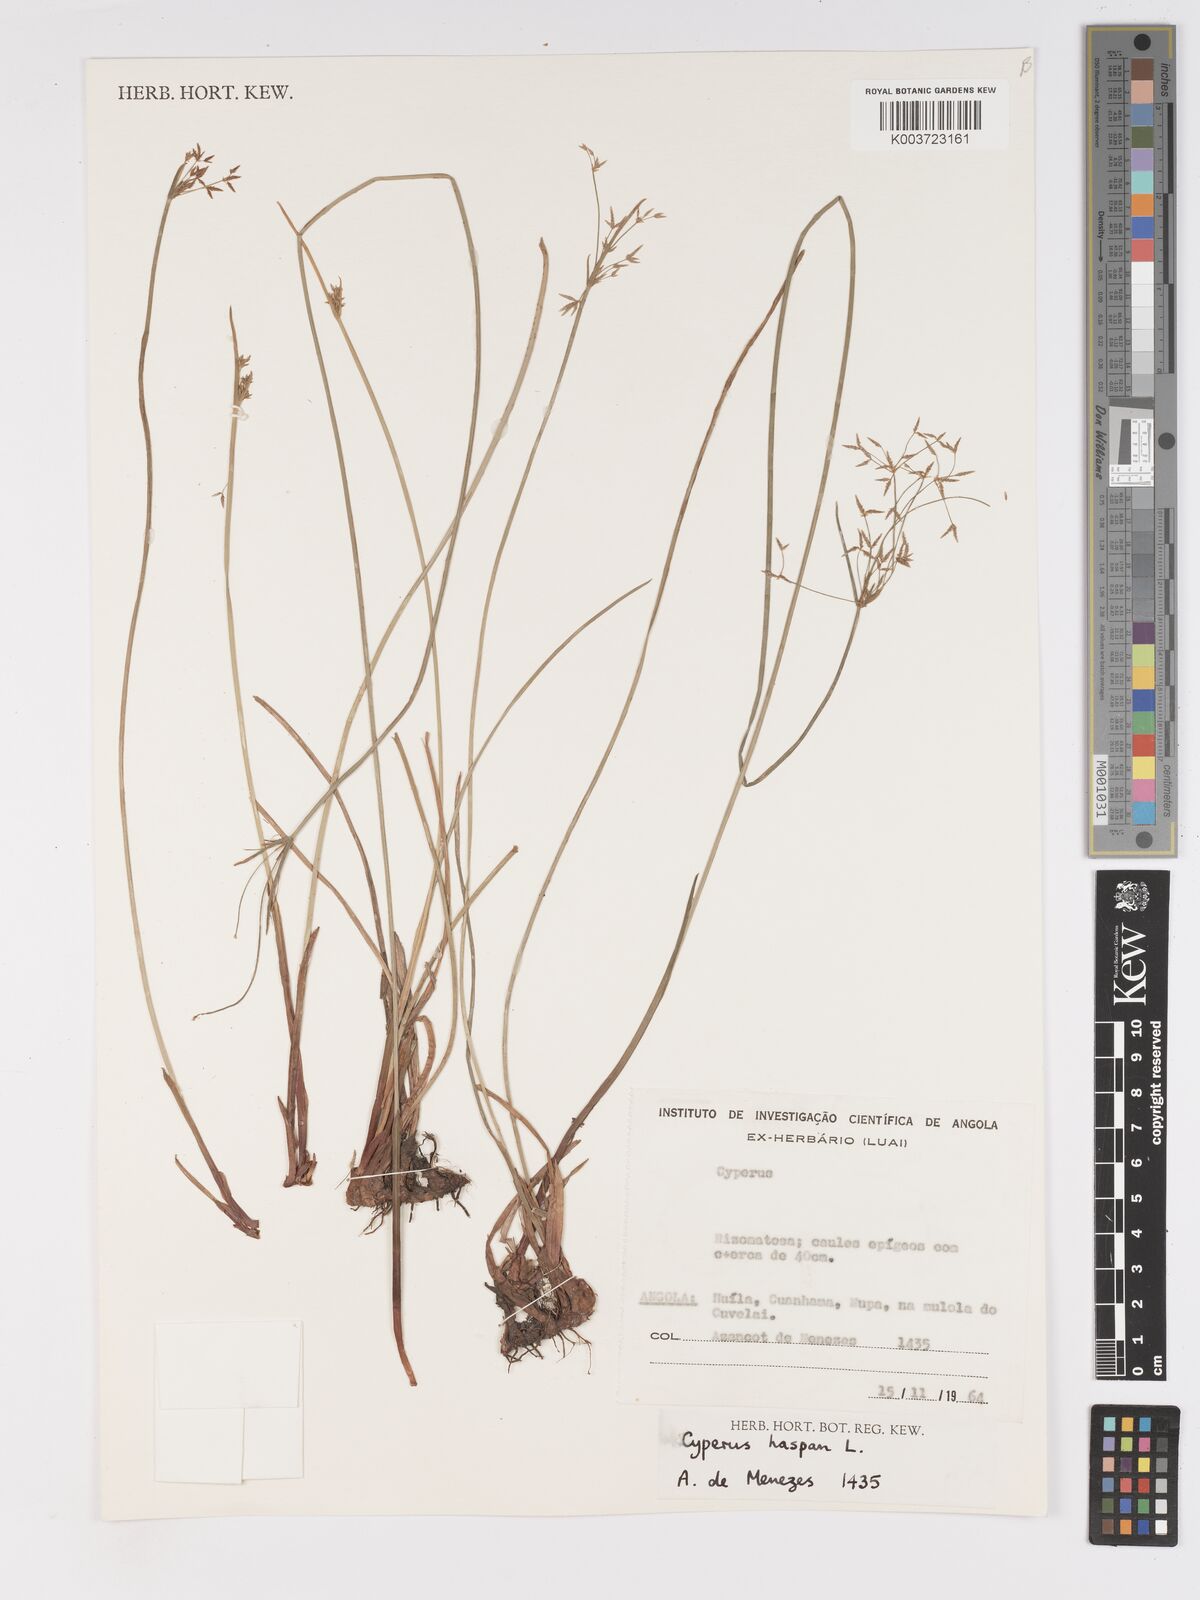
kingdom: Plantae
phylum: Tracheophyta
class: Liliopsida
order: Poales
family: Cyperaceae
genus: Cyperus
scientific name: Cyperus haspan
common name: Haspan flatsedge
